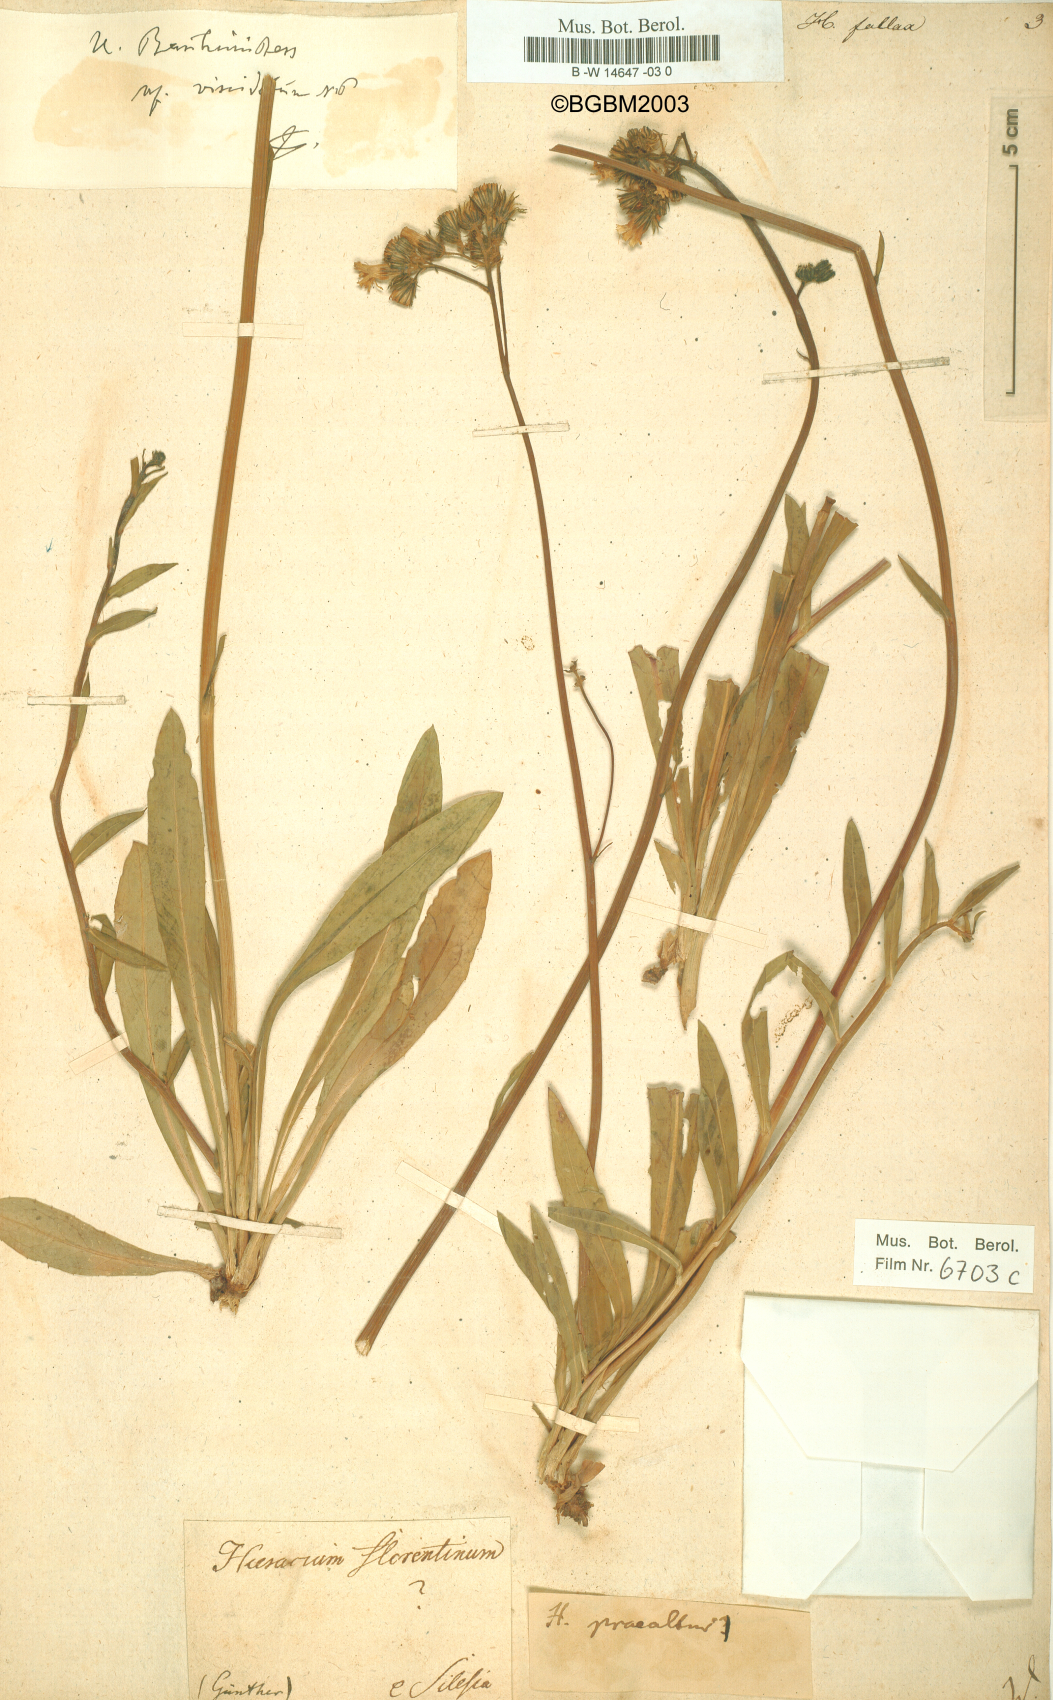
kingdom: Plantae
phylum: Tracheophyta
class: Magnoliopsida
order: Asterales
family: Asteraceae
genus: Hieracium
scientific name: Hieracium fallax
